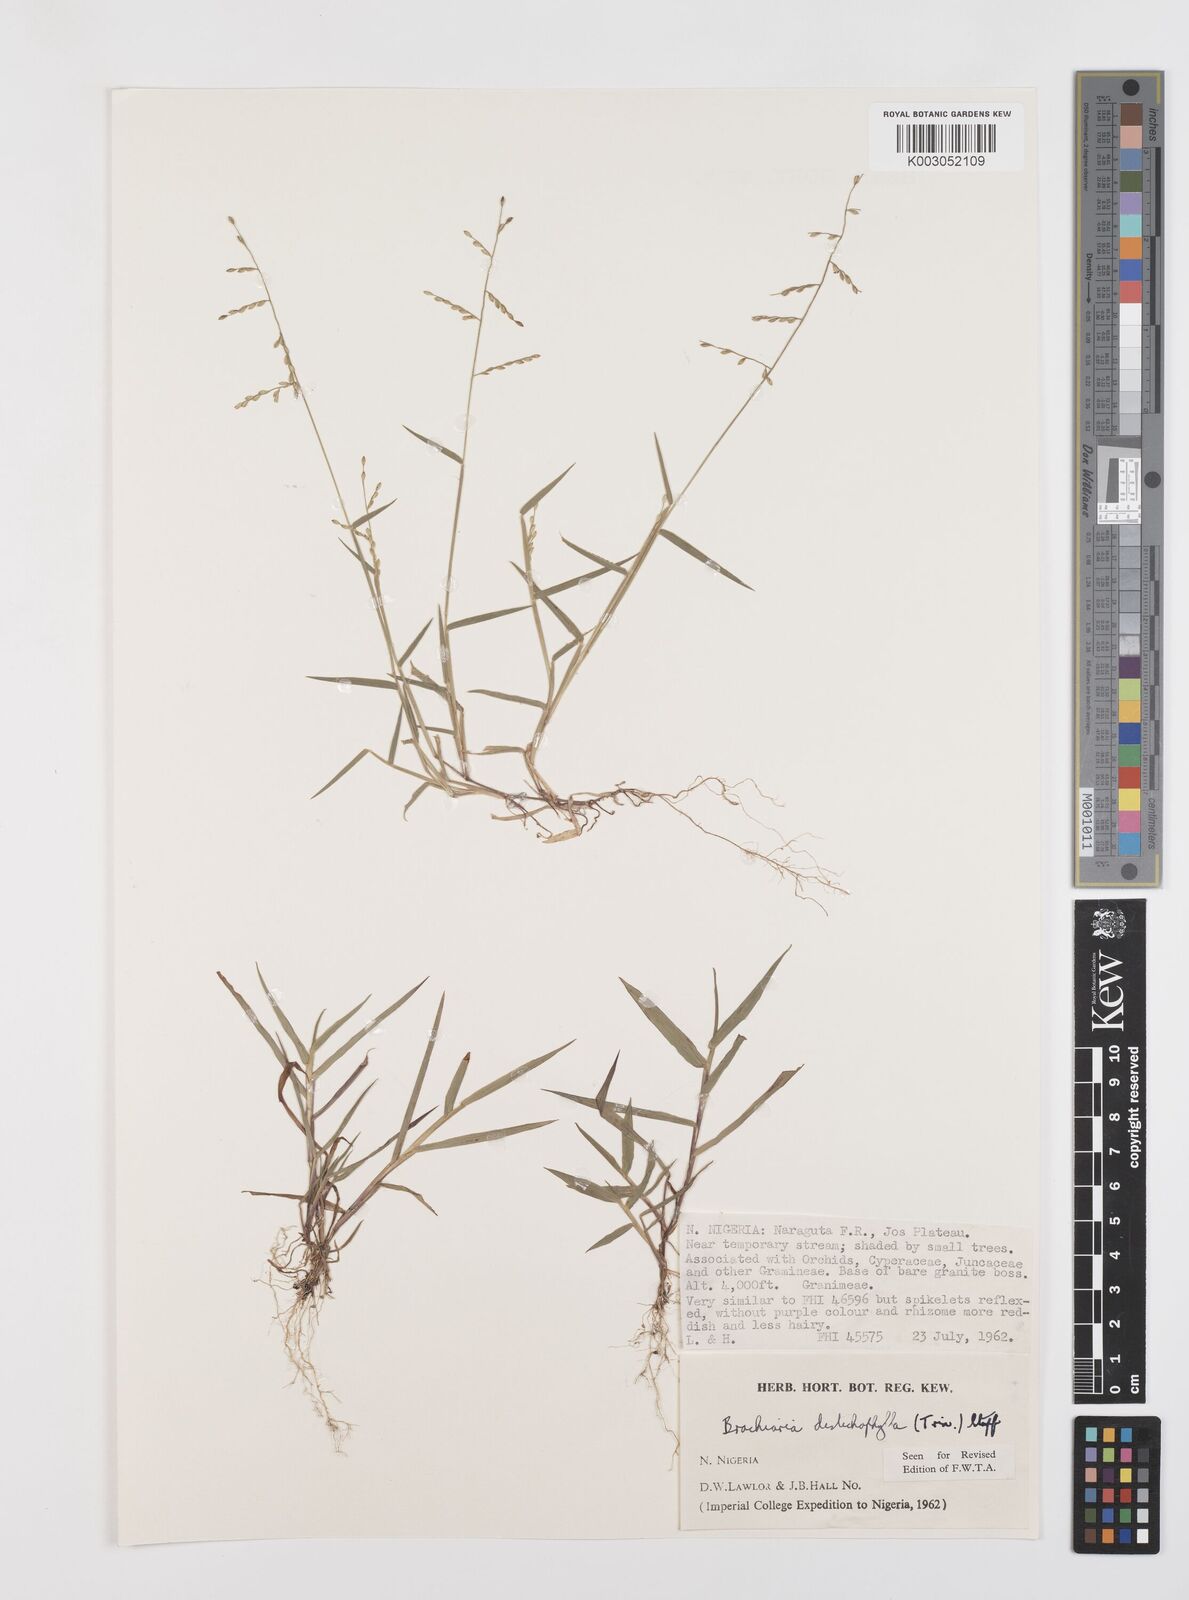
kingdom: Plantae
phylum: Tracheophyta
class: Liliopsida
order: Poales
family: Poaceae
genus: Urochloa
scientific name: Urochloa villosa
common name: Hairy signalgrass
